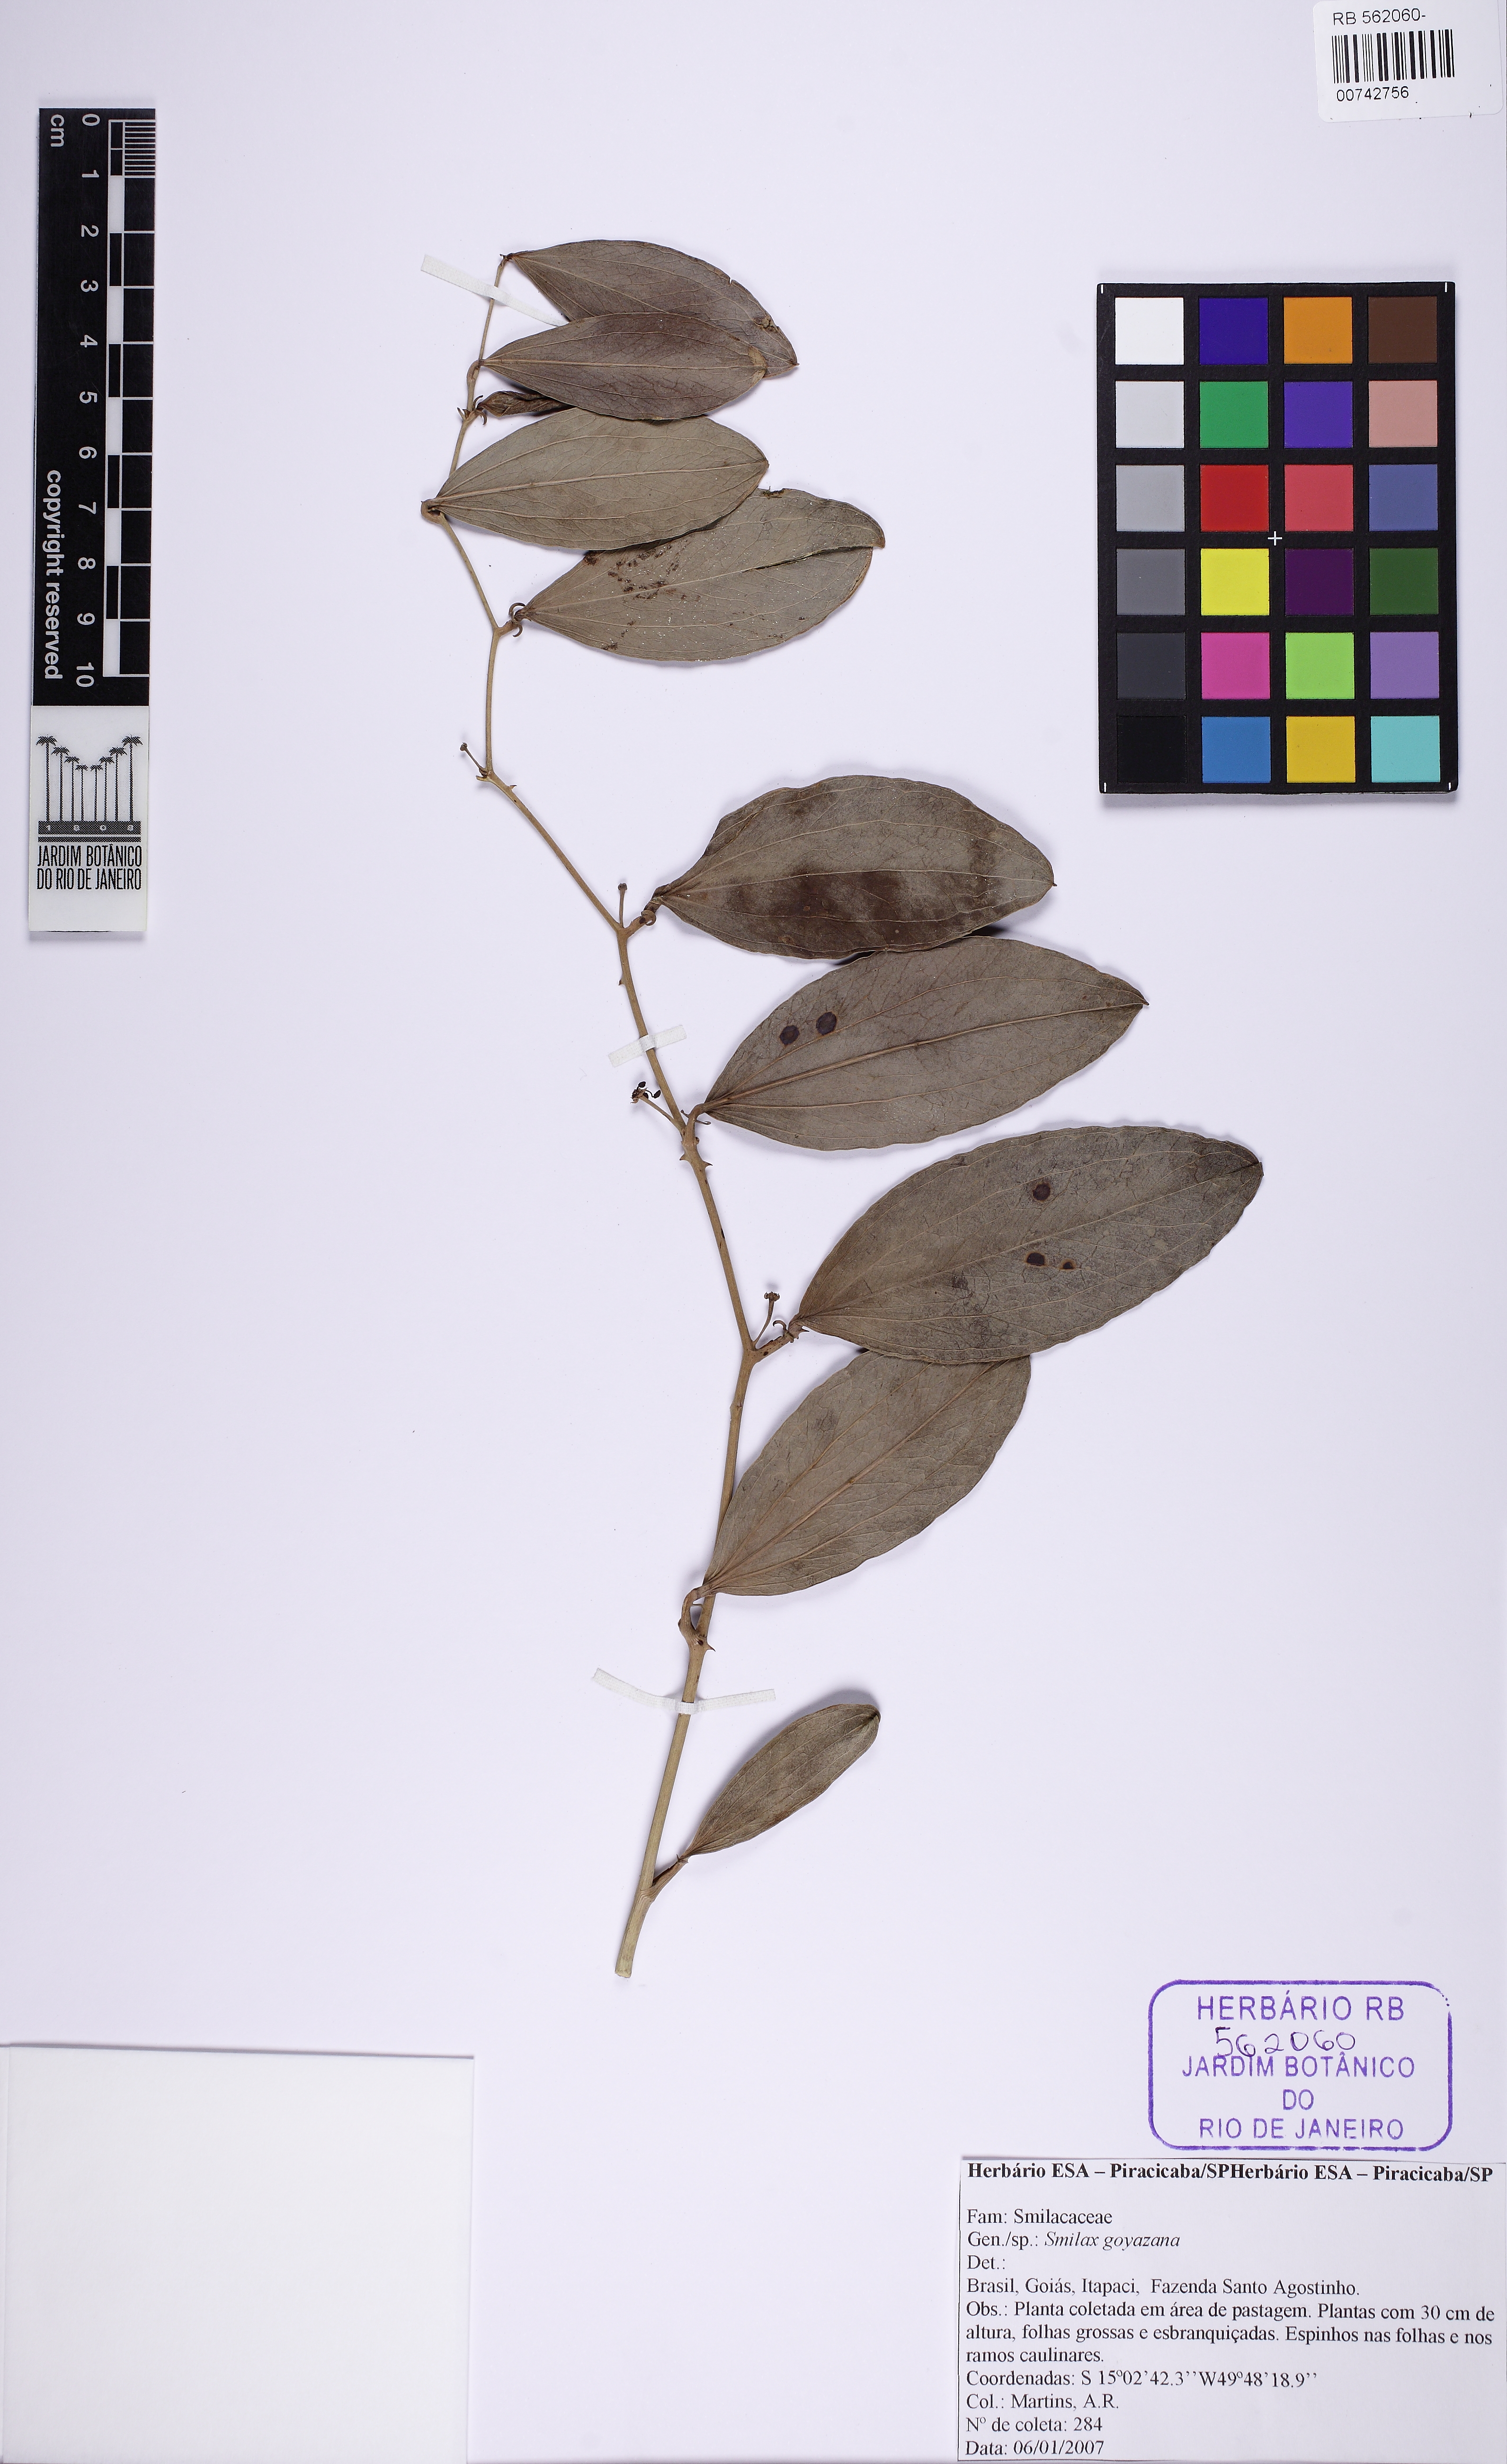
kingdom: Plantae
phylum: Tracheophyta
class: Liliopsida
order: Liliales
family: Smilacaceae
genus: Smilax
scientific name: Smilax goyazana
